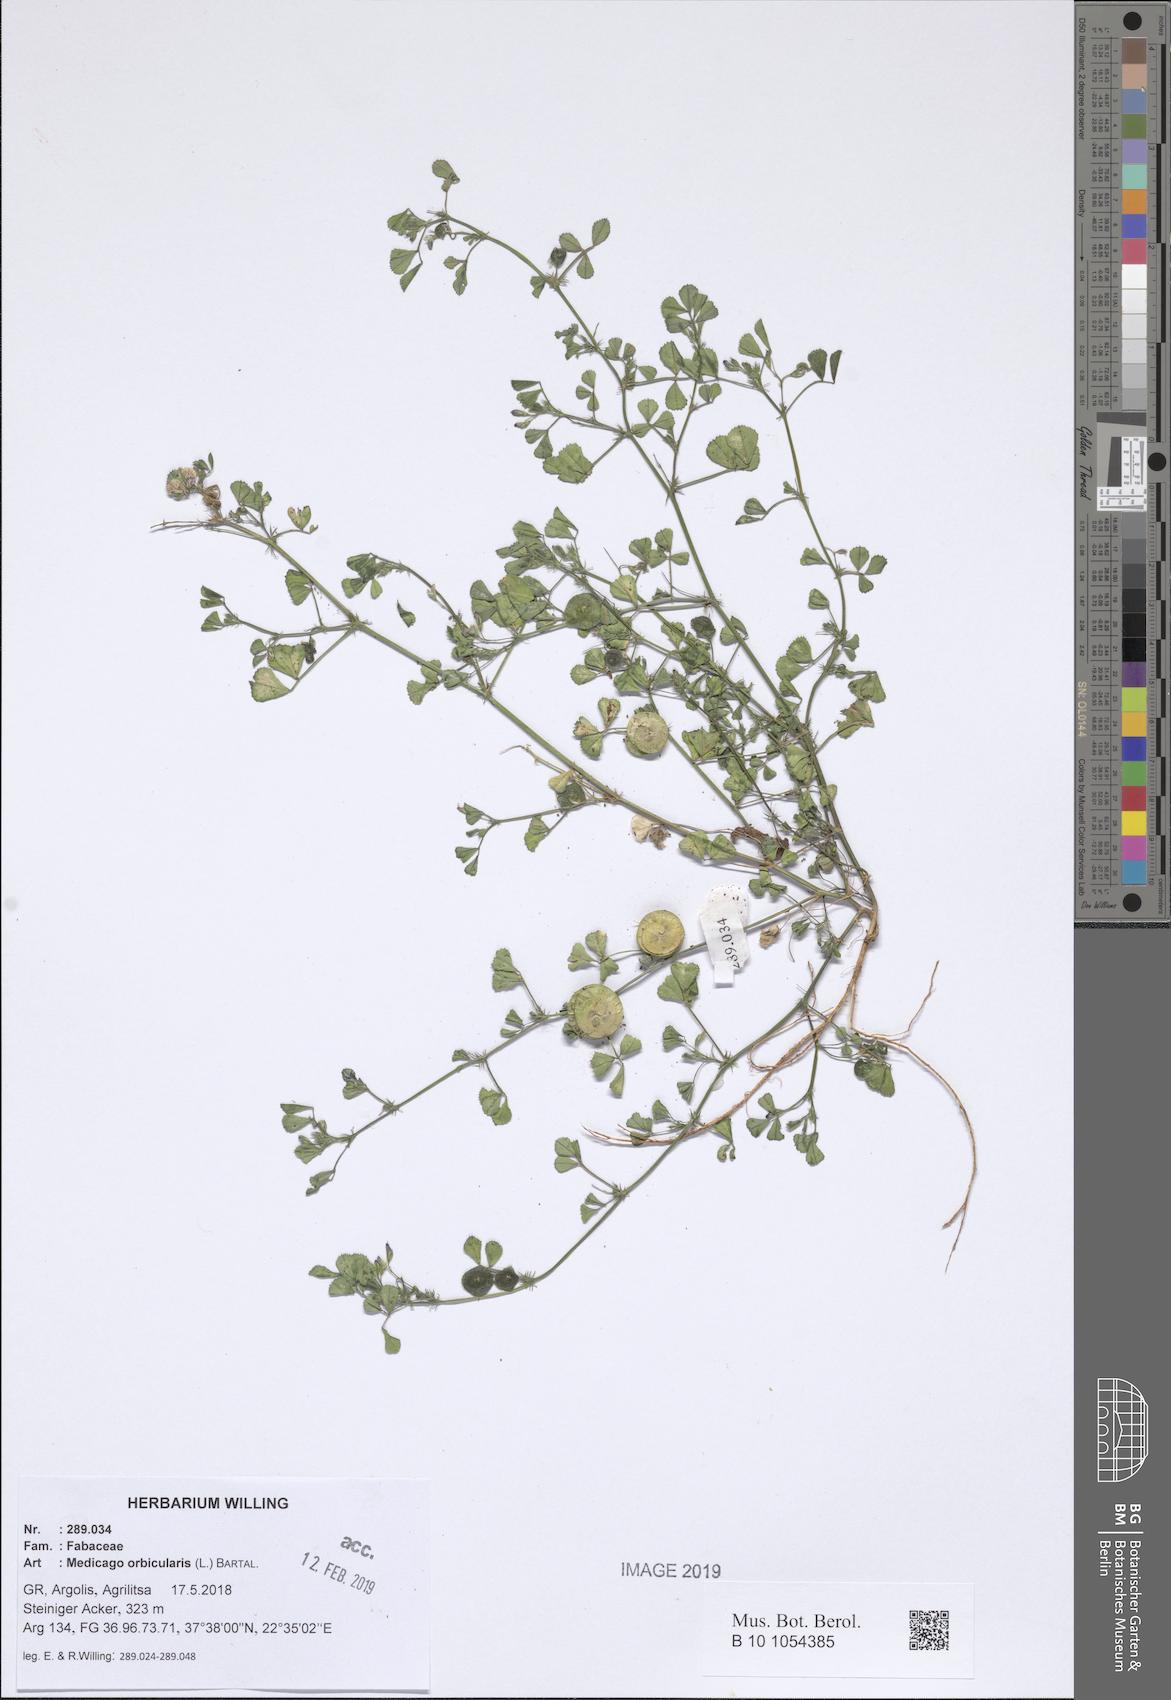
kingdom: Plantae
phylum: Tracheophyta
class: Magnoliopsida
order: Fabales
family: Fabaceae
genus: Medicago
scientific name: Medicago orbicularis
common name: Button medick
